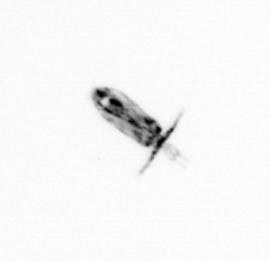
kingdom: Animalia
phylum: Arthropoda
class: Copepoda
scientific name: Copepoda
